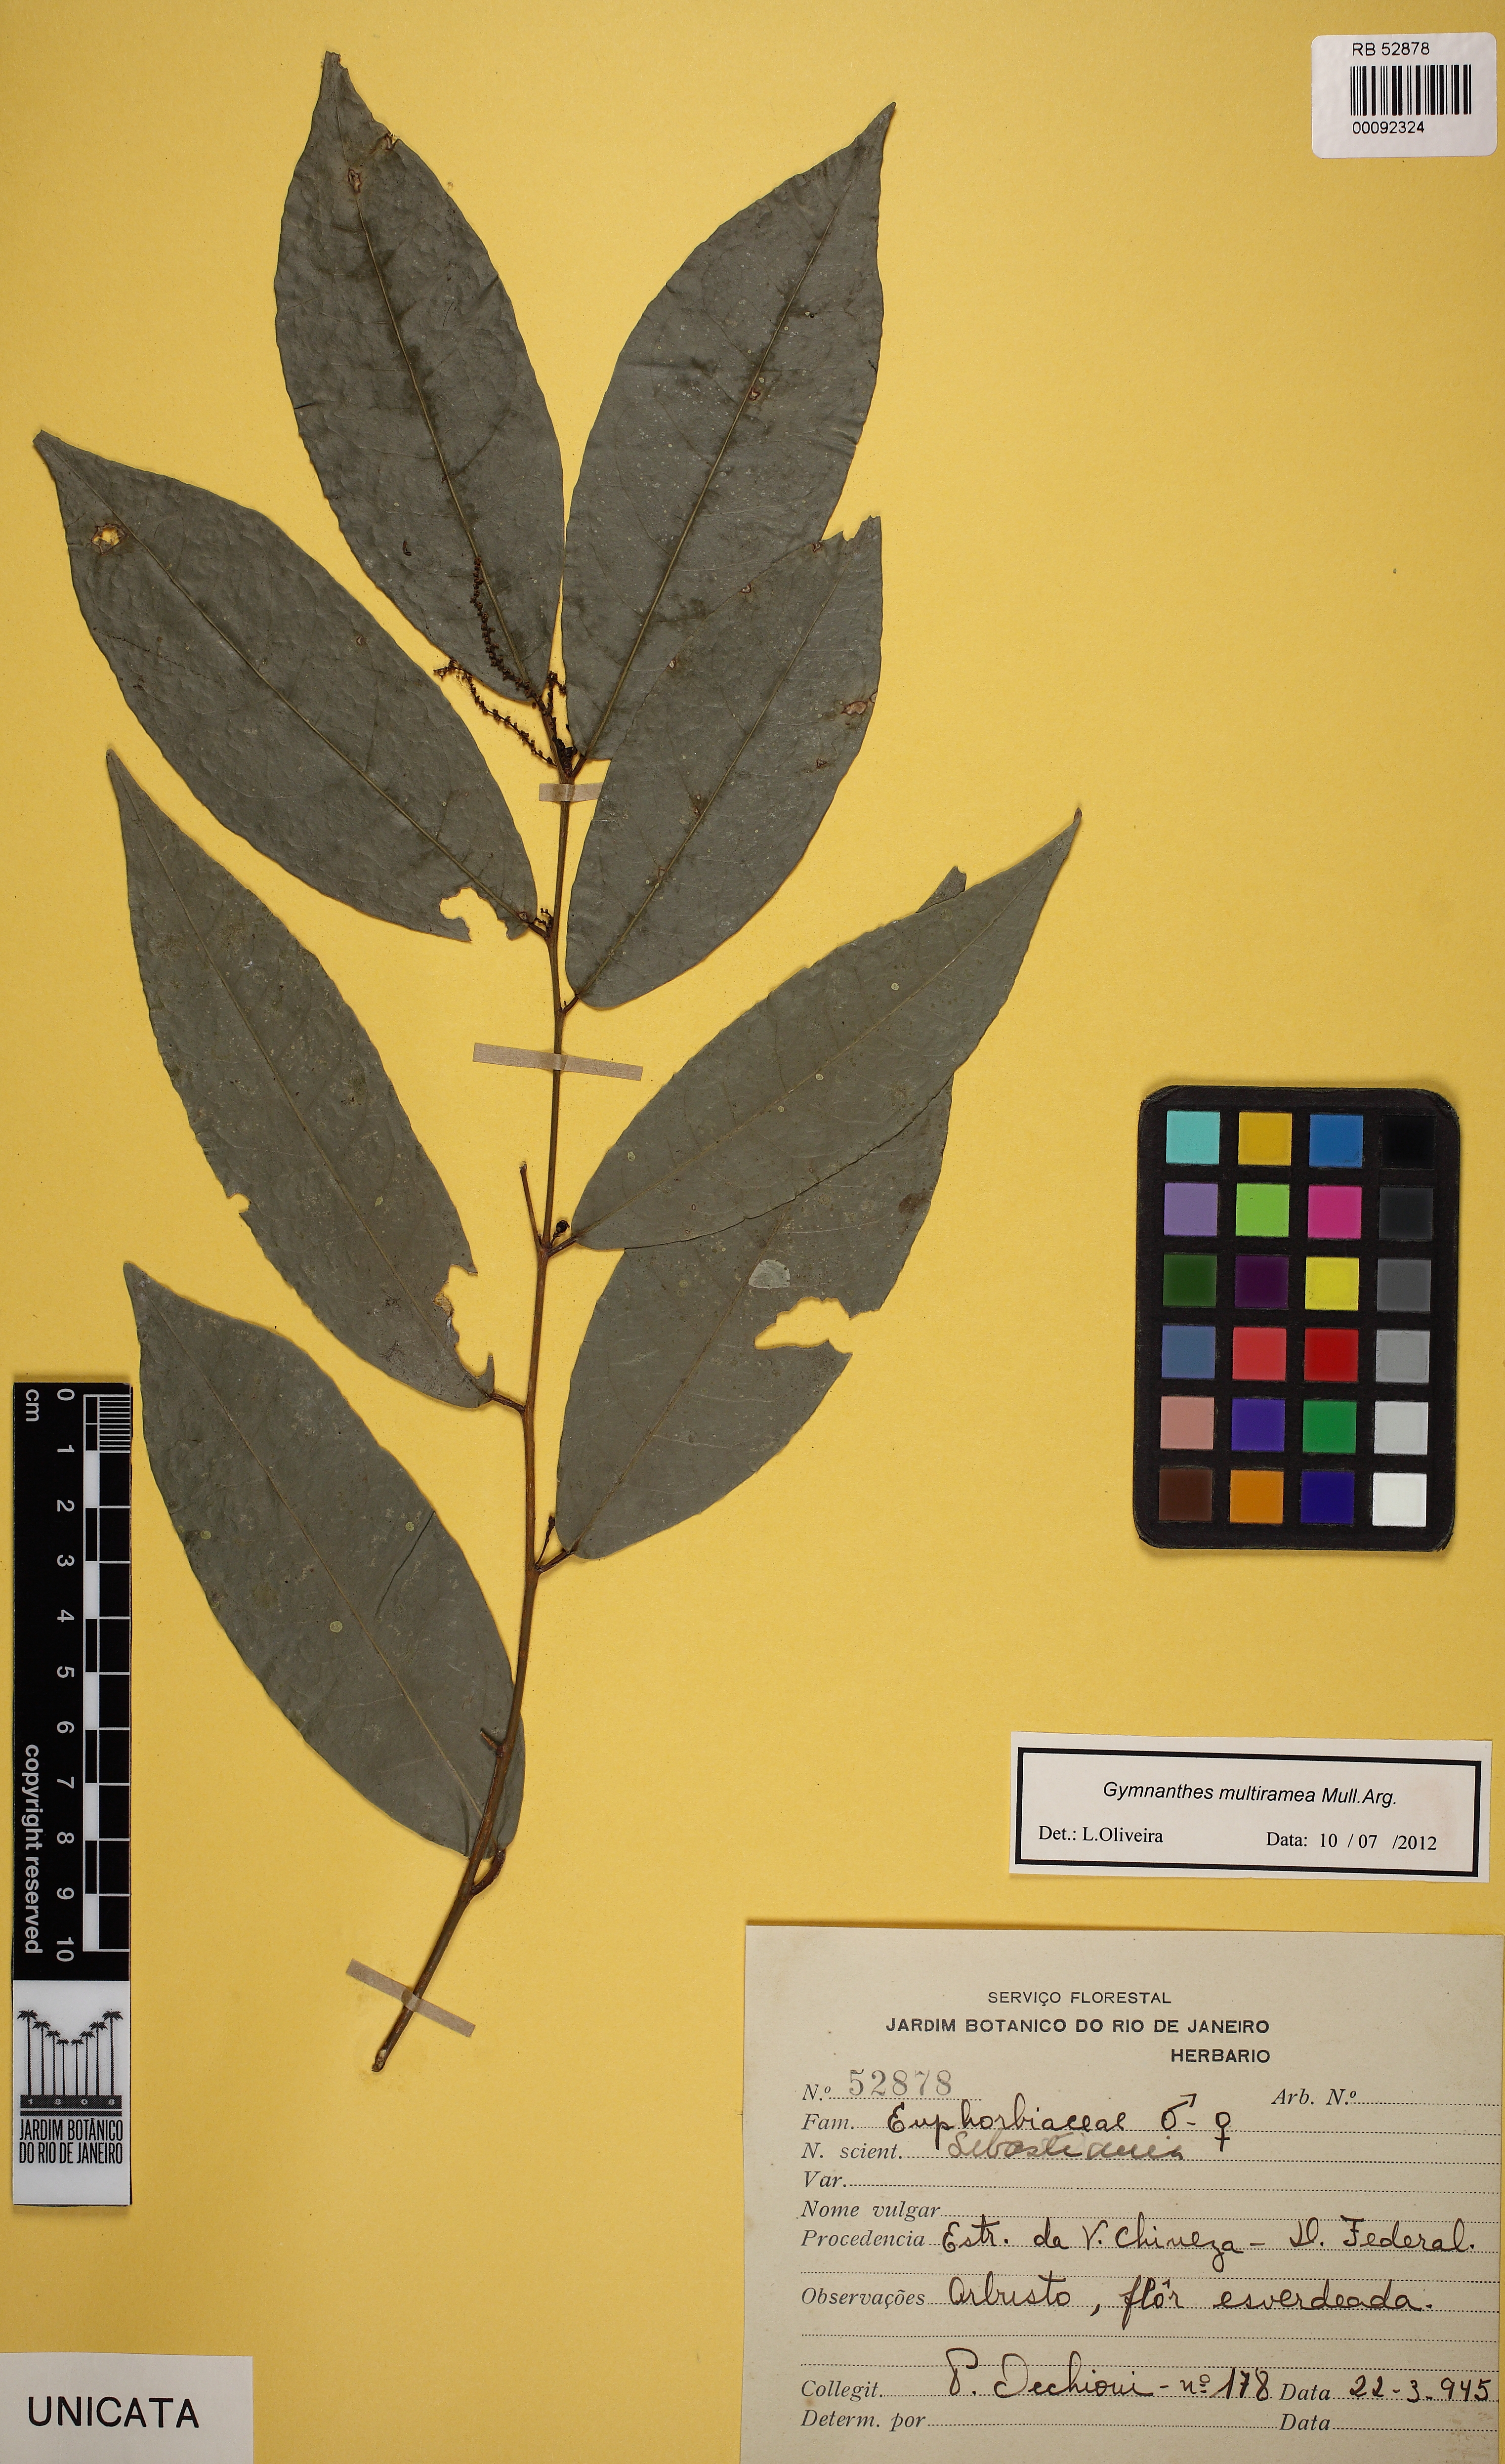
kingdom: Plantae
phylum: Tracheophyta
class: Magnoliopsida
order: Malpighiales
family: Euphorbiaceae
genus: Gymnanthes
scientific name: Gymnanthes glabrata
